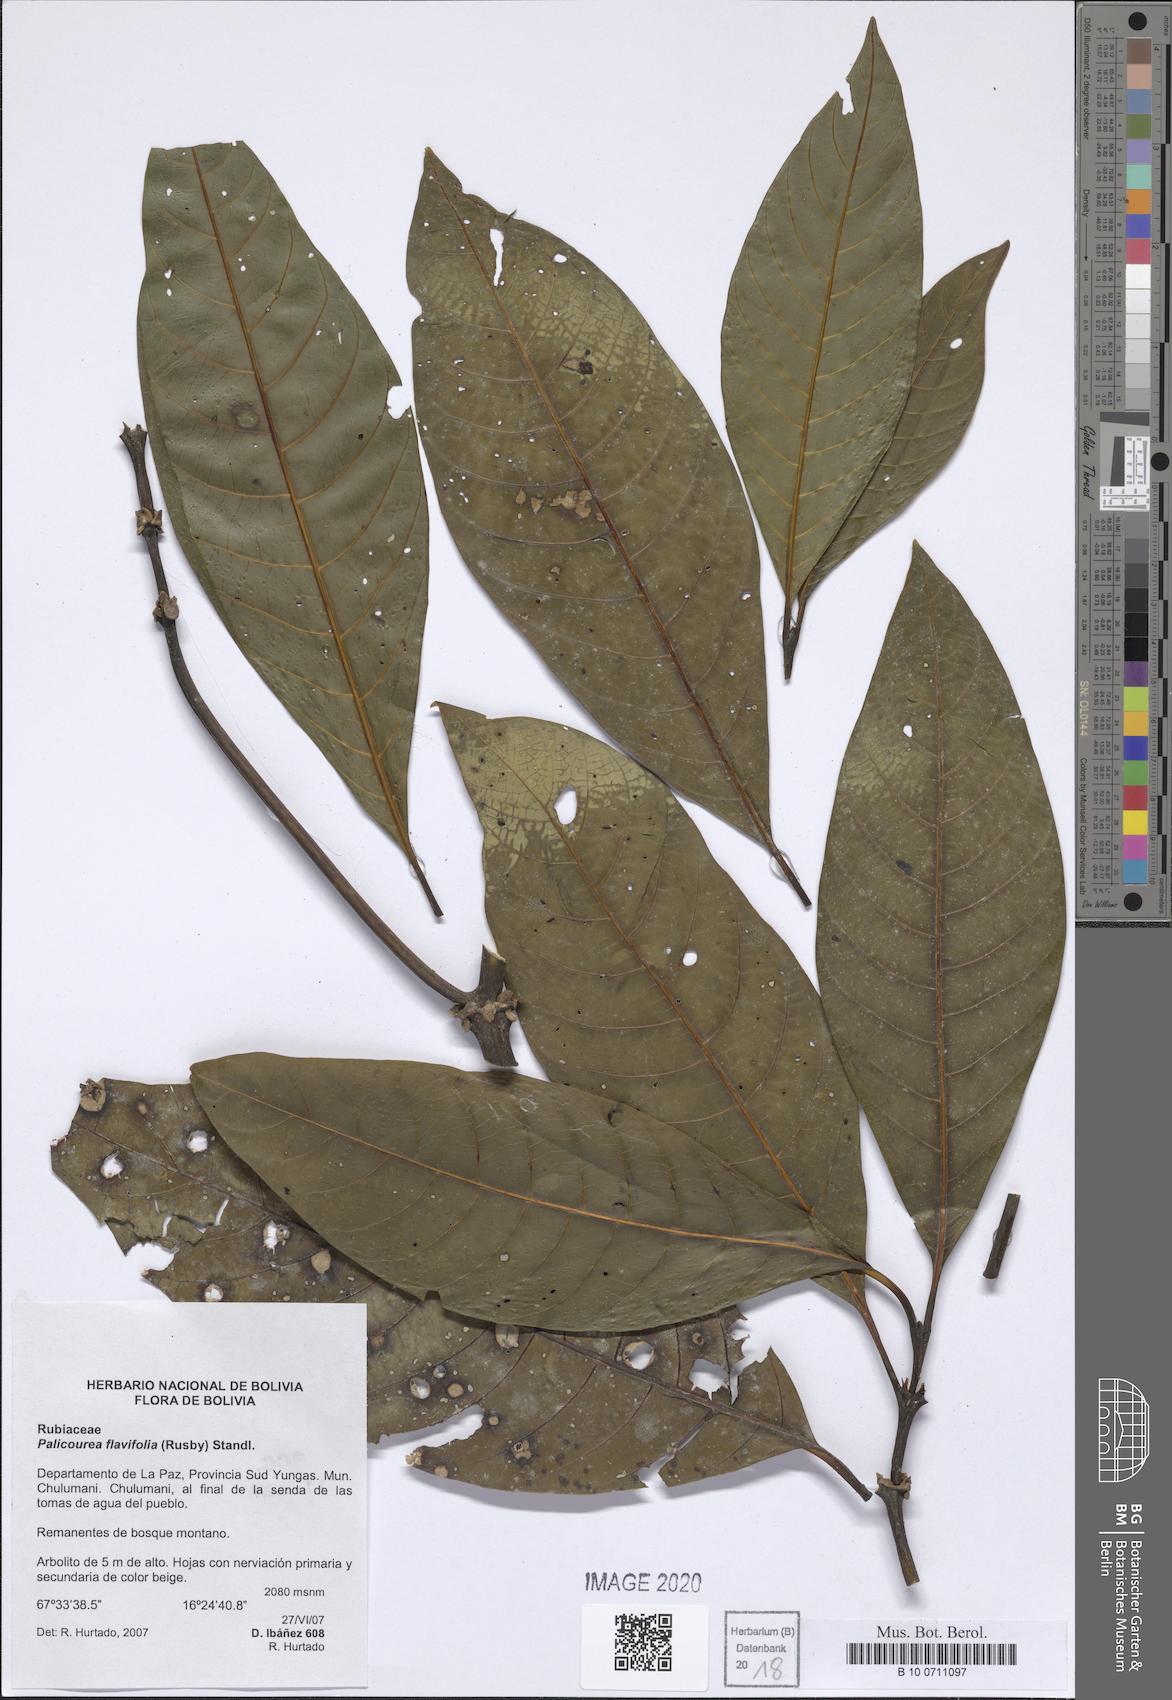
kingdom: Plantae
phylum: Tracheophyta
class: Magnoliopsida
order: Gentianales
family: Rubiaceae
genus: Palicourea
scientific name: Palicourea flavifolia
